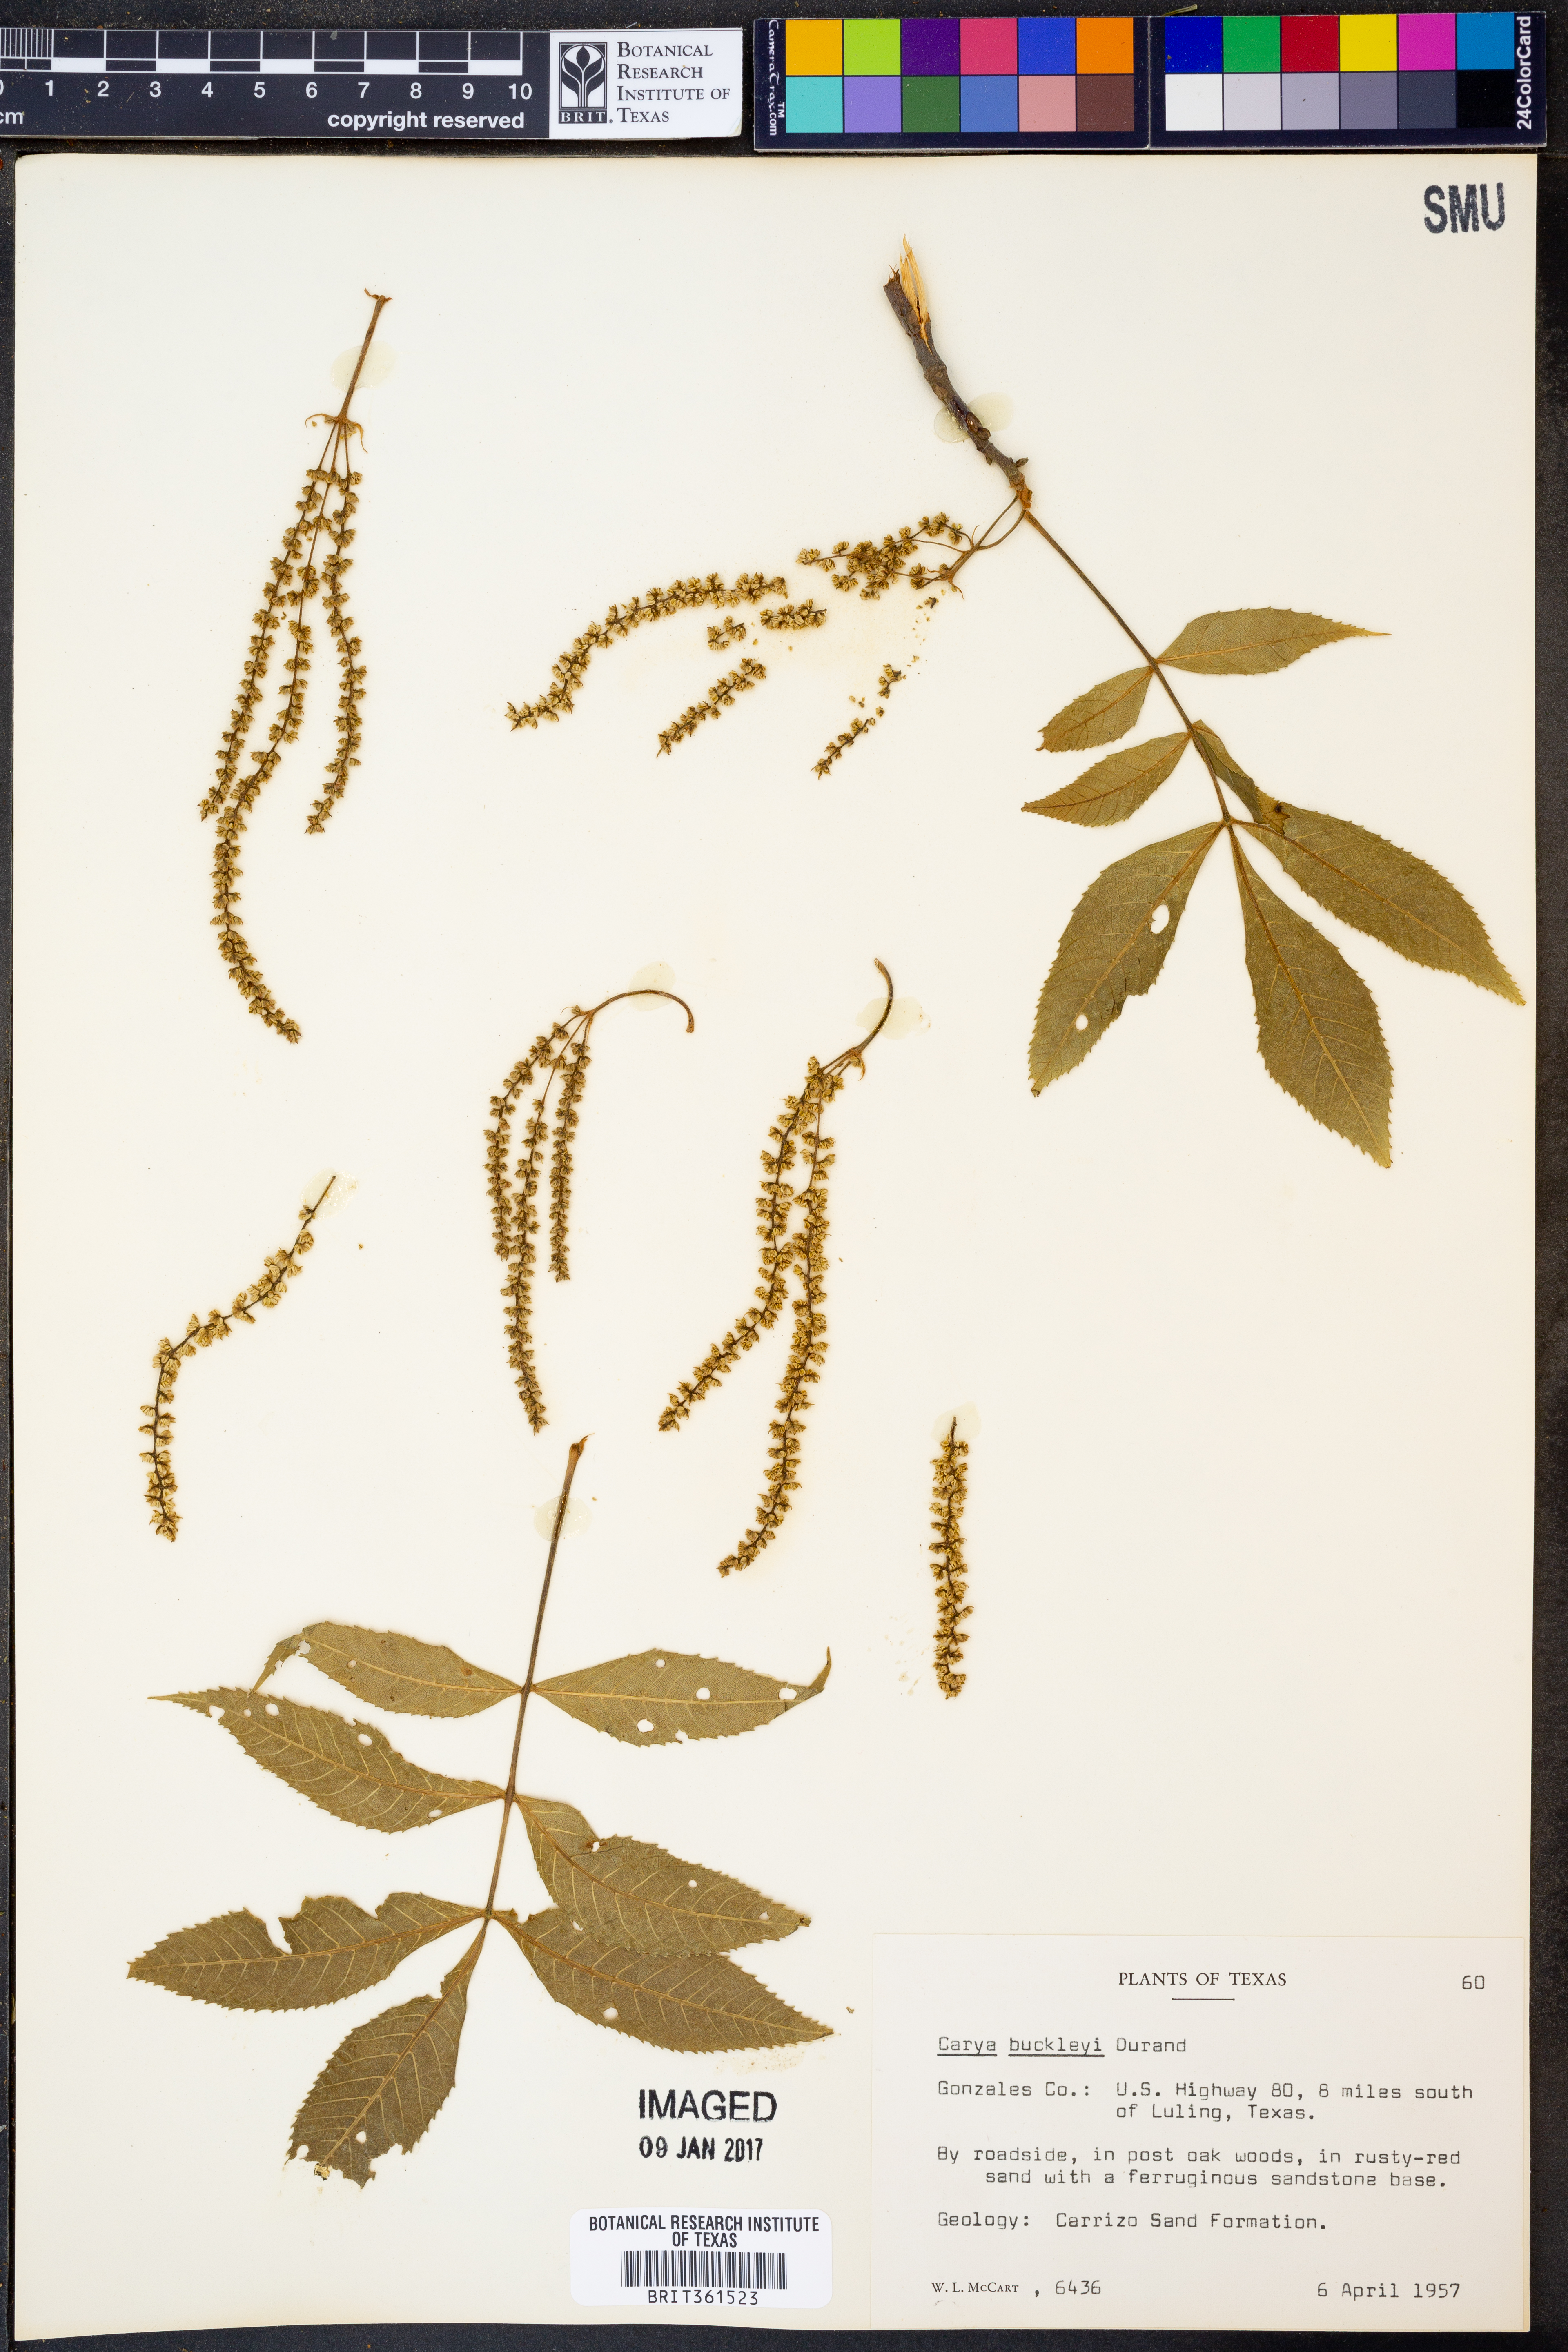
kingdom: Plantae
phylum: Tracheophyta
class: Magnoliopsida
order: Fagales
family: Juglandaceae
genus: Carya
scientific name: Carya texana
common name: Black hickory
